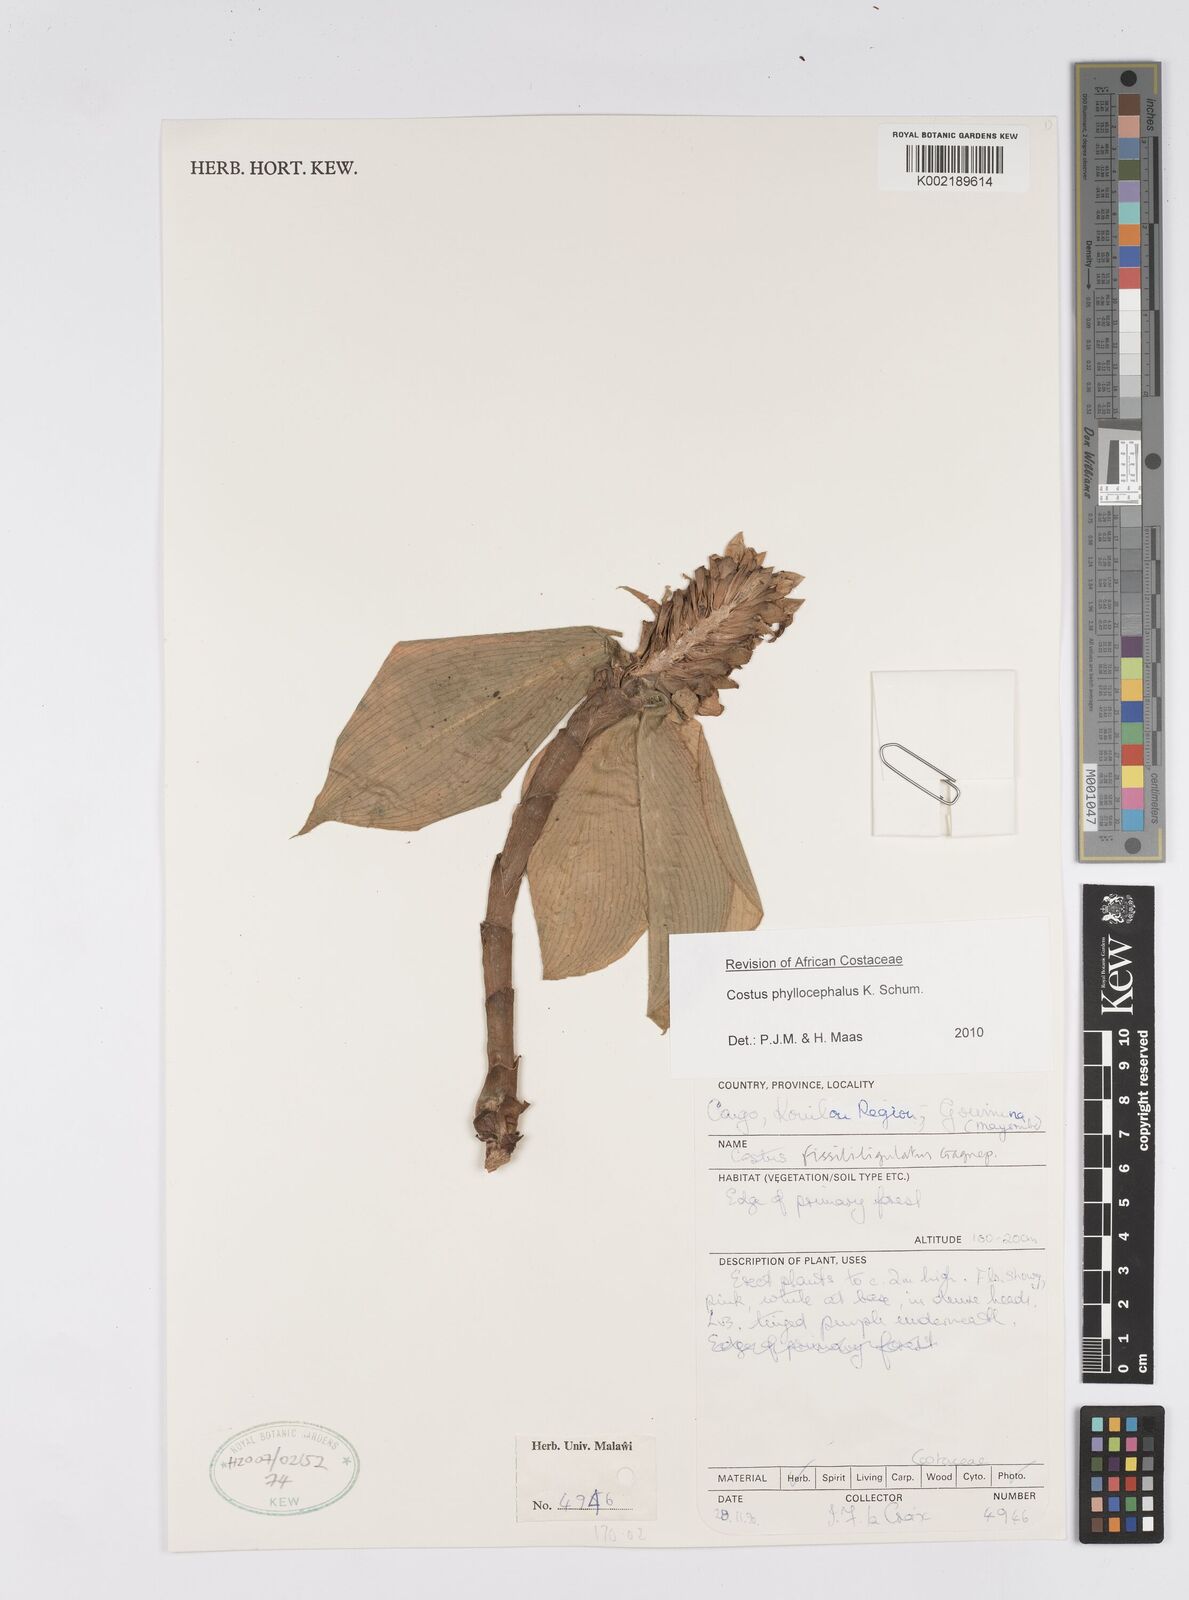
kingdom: Plantae
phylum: Tracheophyta
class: Liliopsida
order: Zingiberales
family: Costaceae
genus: Costus
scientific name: Costus phyllocephalus
